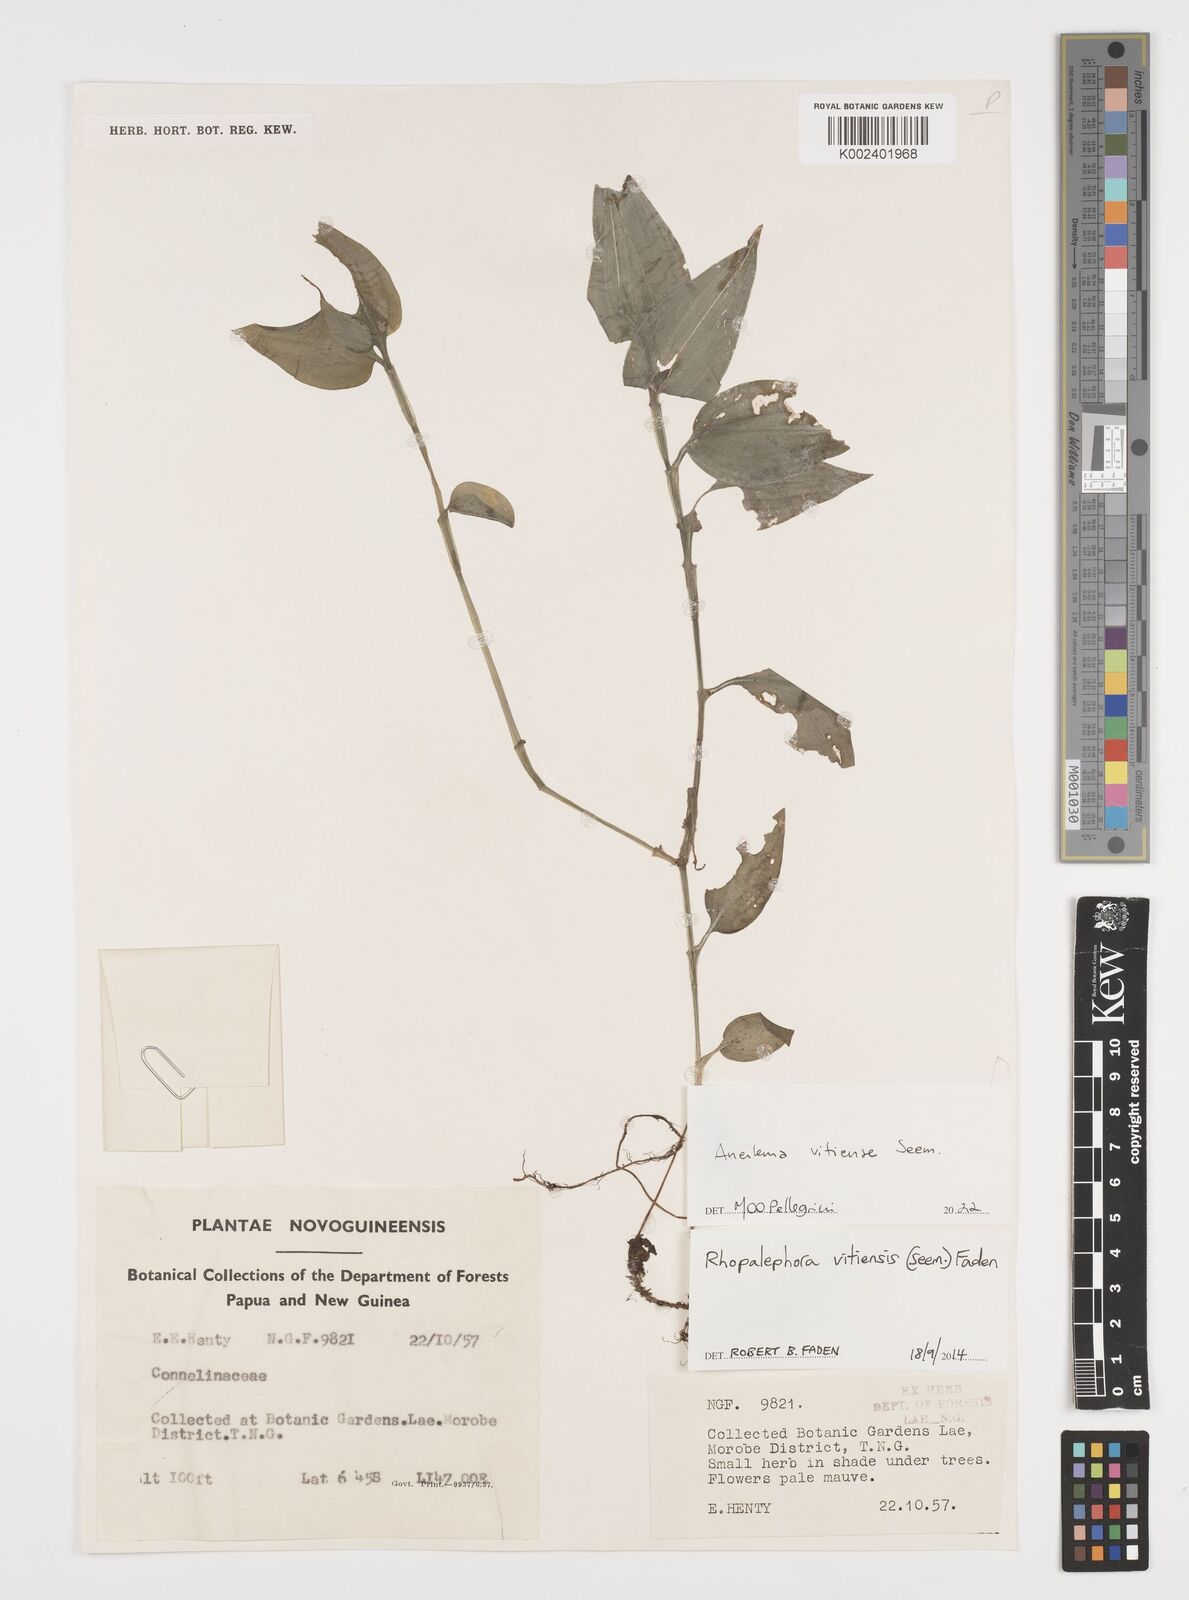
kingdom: Plantae
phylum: Tracheophyta
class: Liliopsida
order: Commelinales
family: Commelinaceae
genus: Rhopalephora
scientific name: Rhopalephora vitiensis
